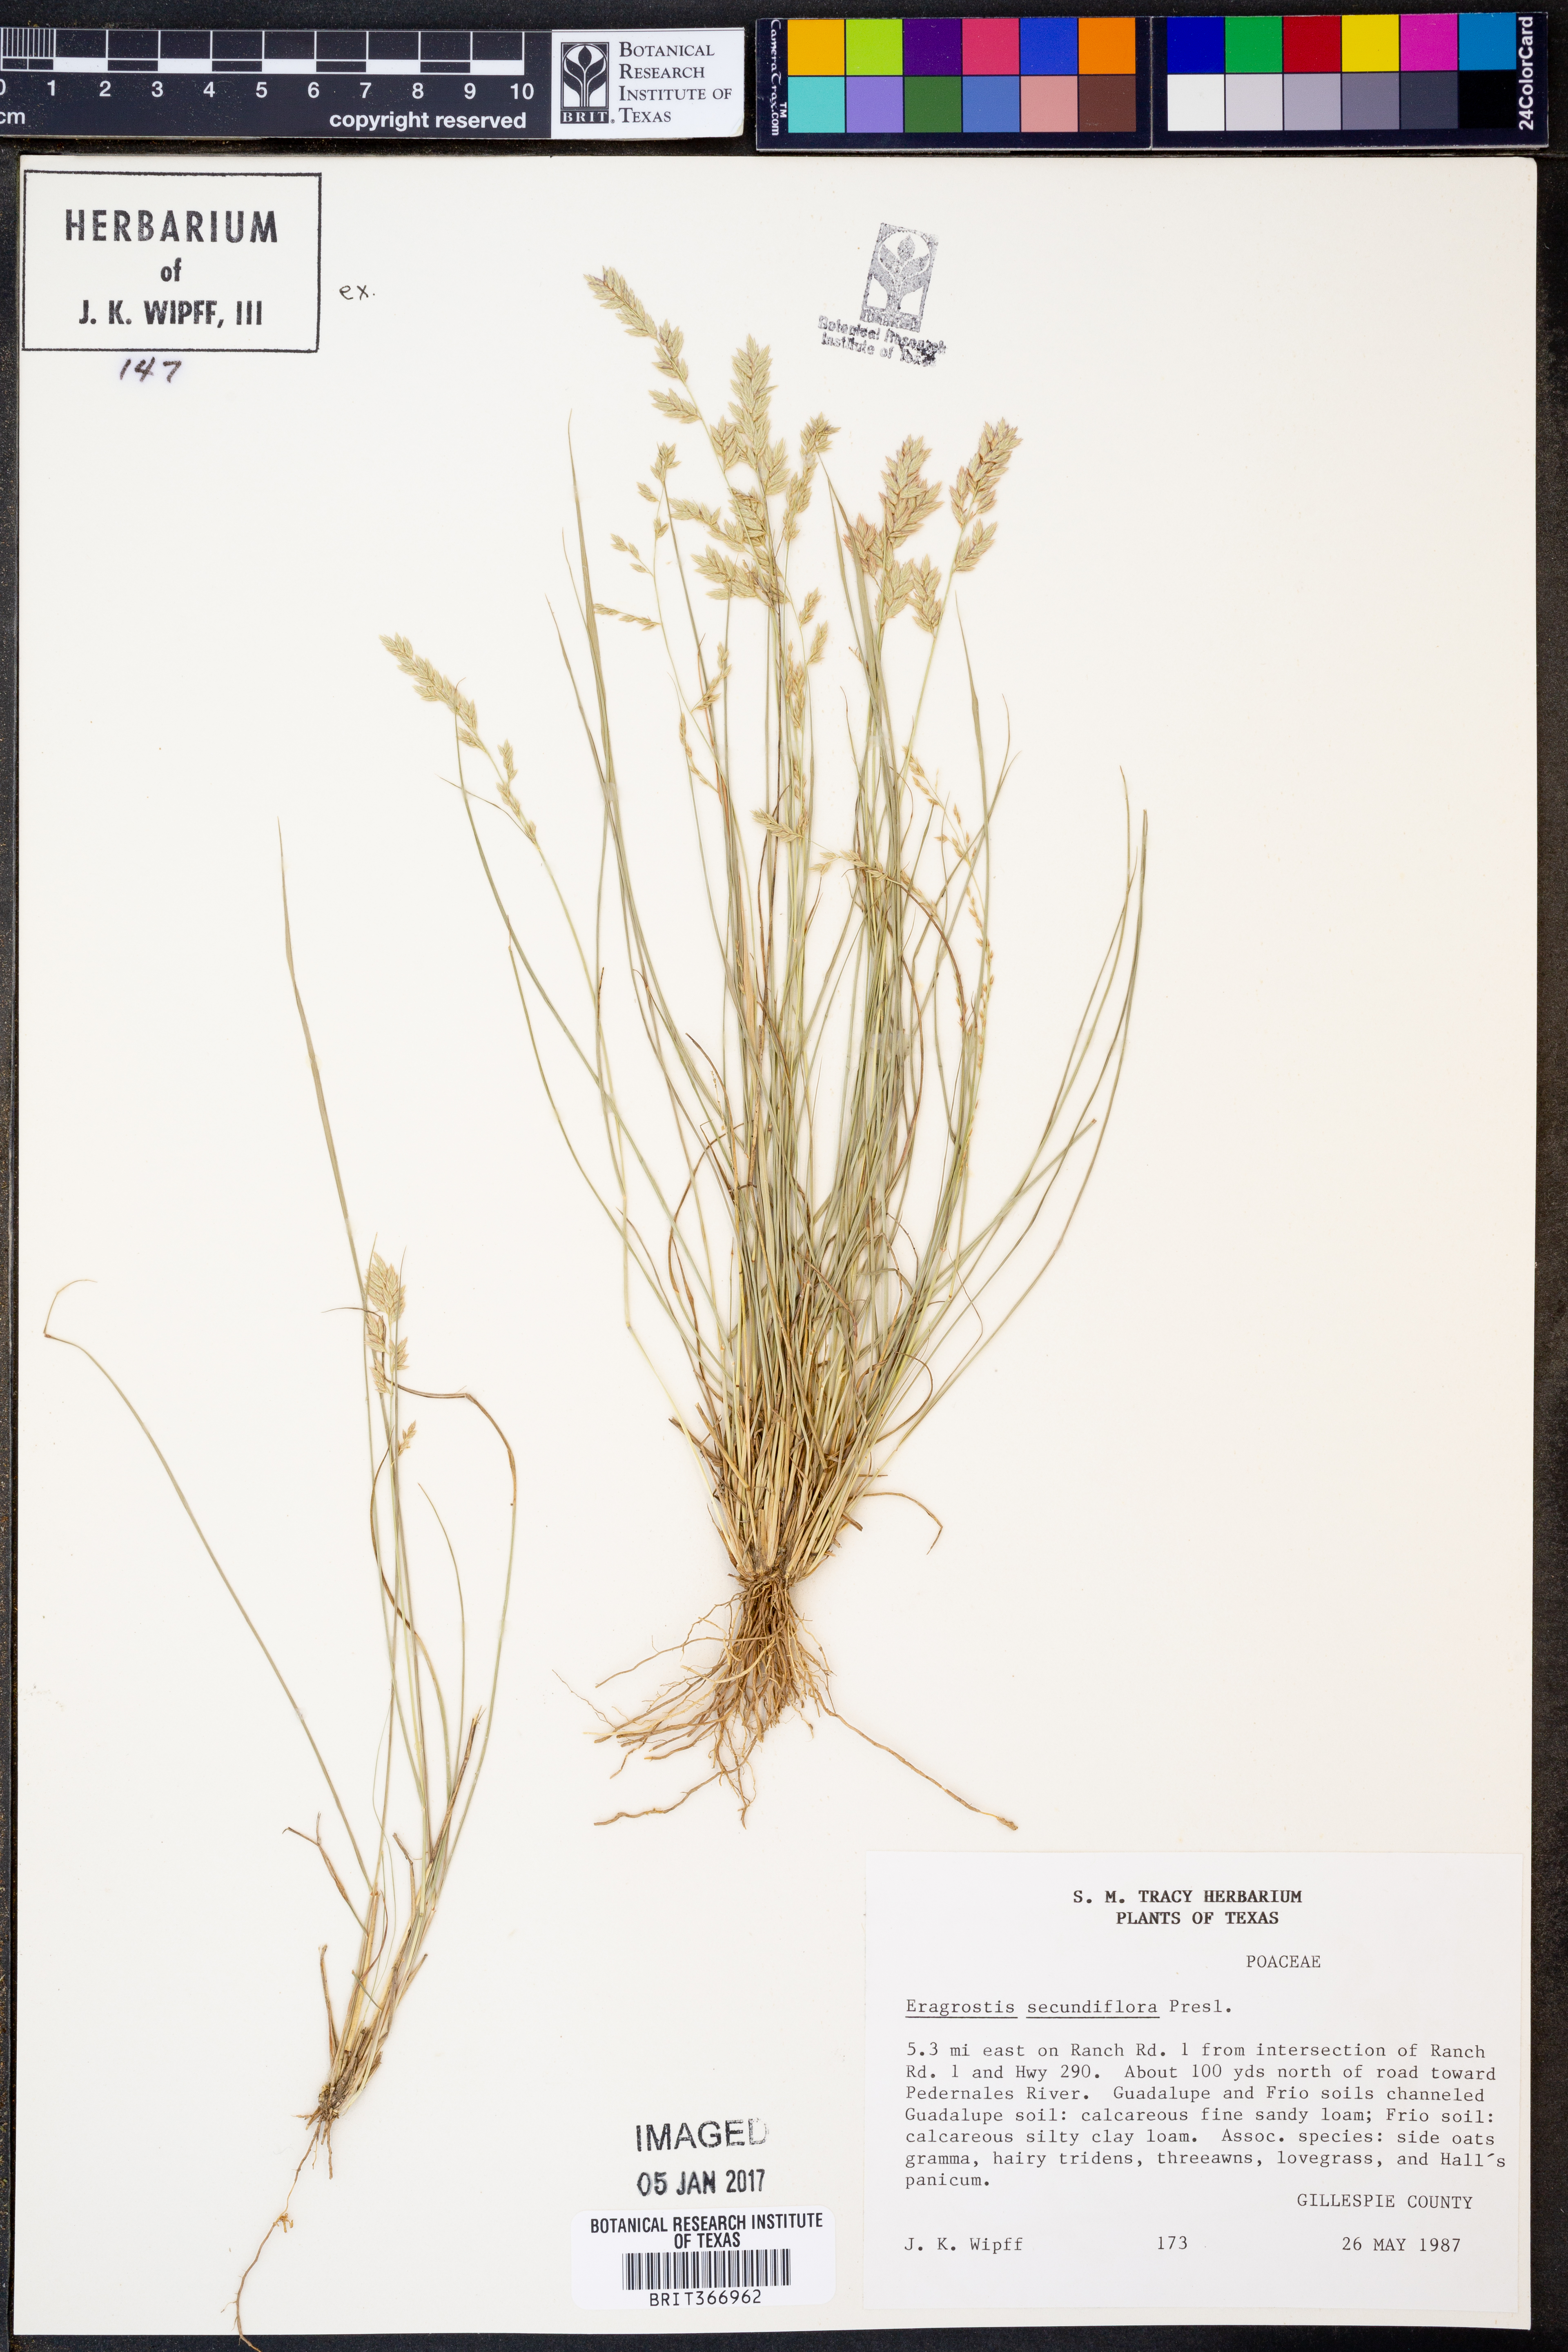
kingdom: Plantae
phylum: Tracheophyta
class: Liliopsida
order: Poales
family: Poaceae
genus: Eragrostis
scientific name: Eragrostis secundiflora
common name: Red love grass
